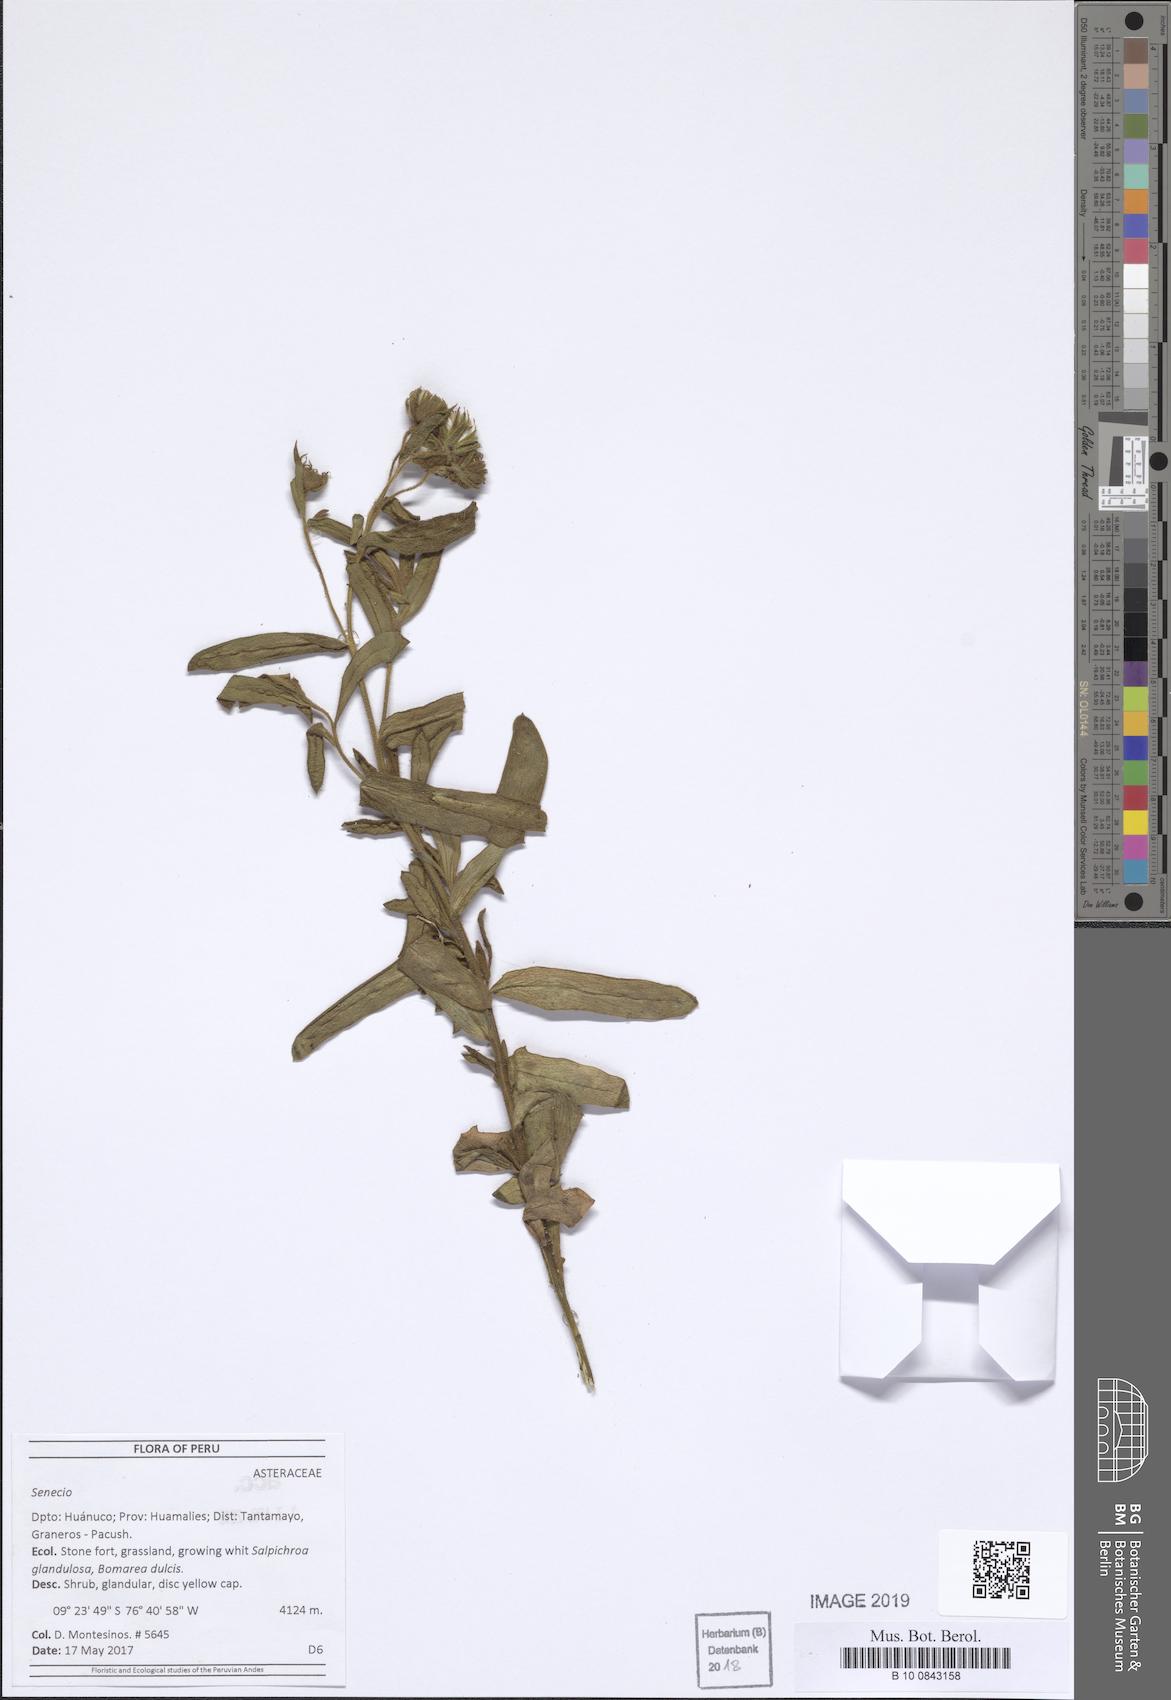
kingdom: Plantae
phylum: Tracheophyta
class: Magnoliopsida
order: Asterales
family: Asteraceae
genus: Senecio
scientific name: Senecio
